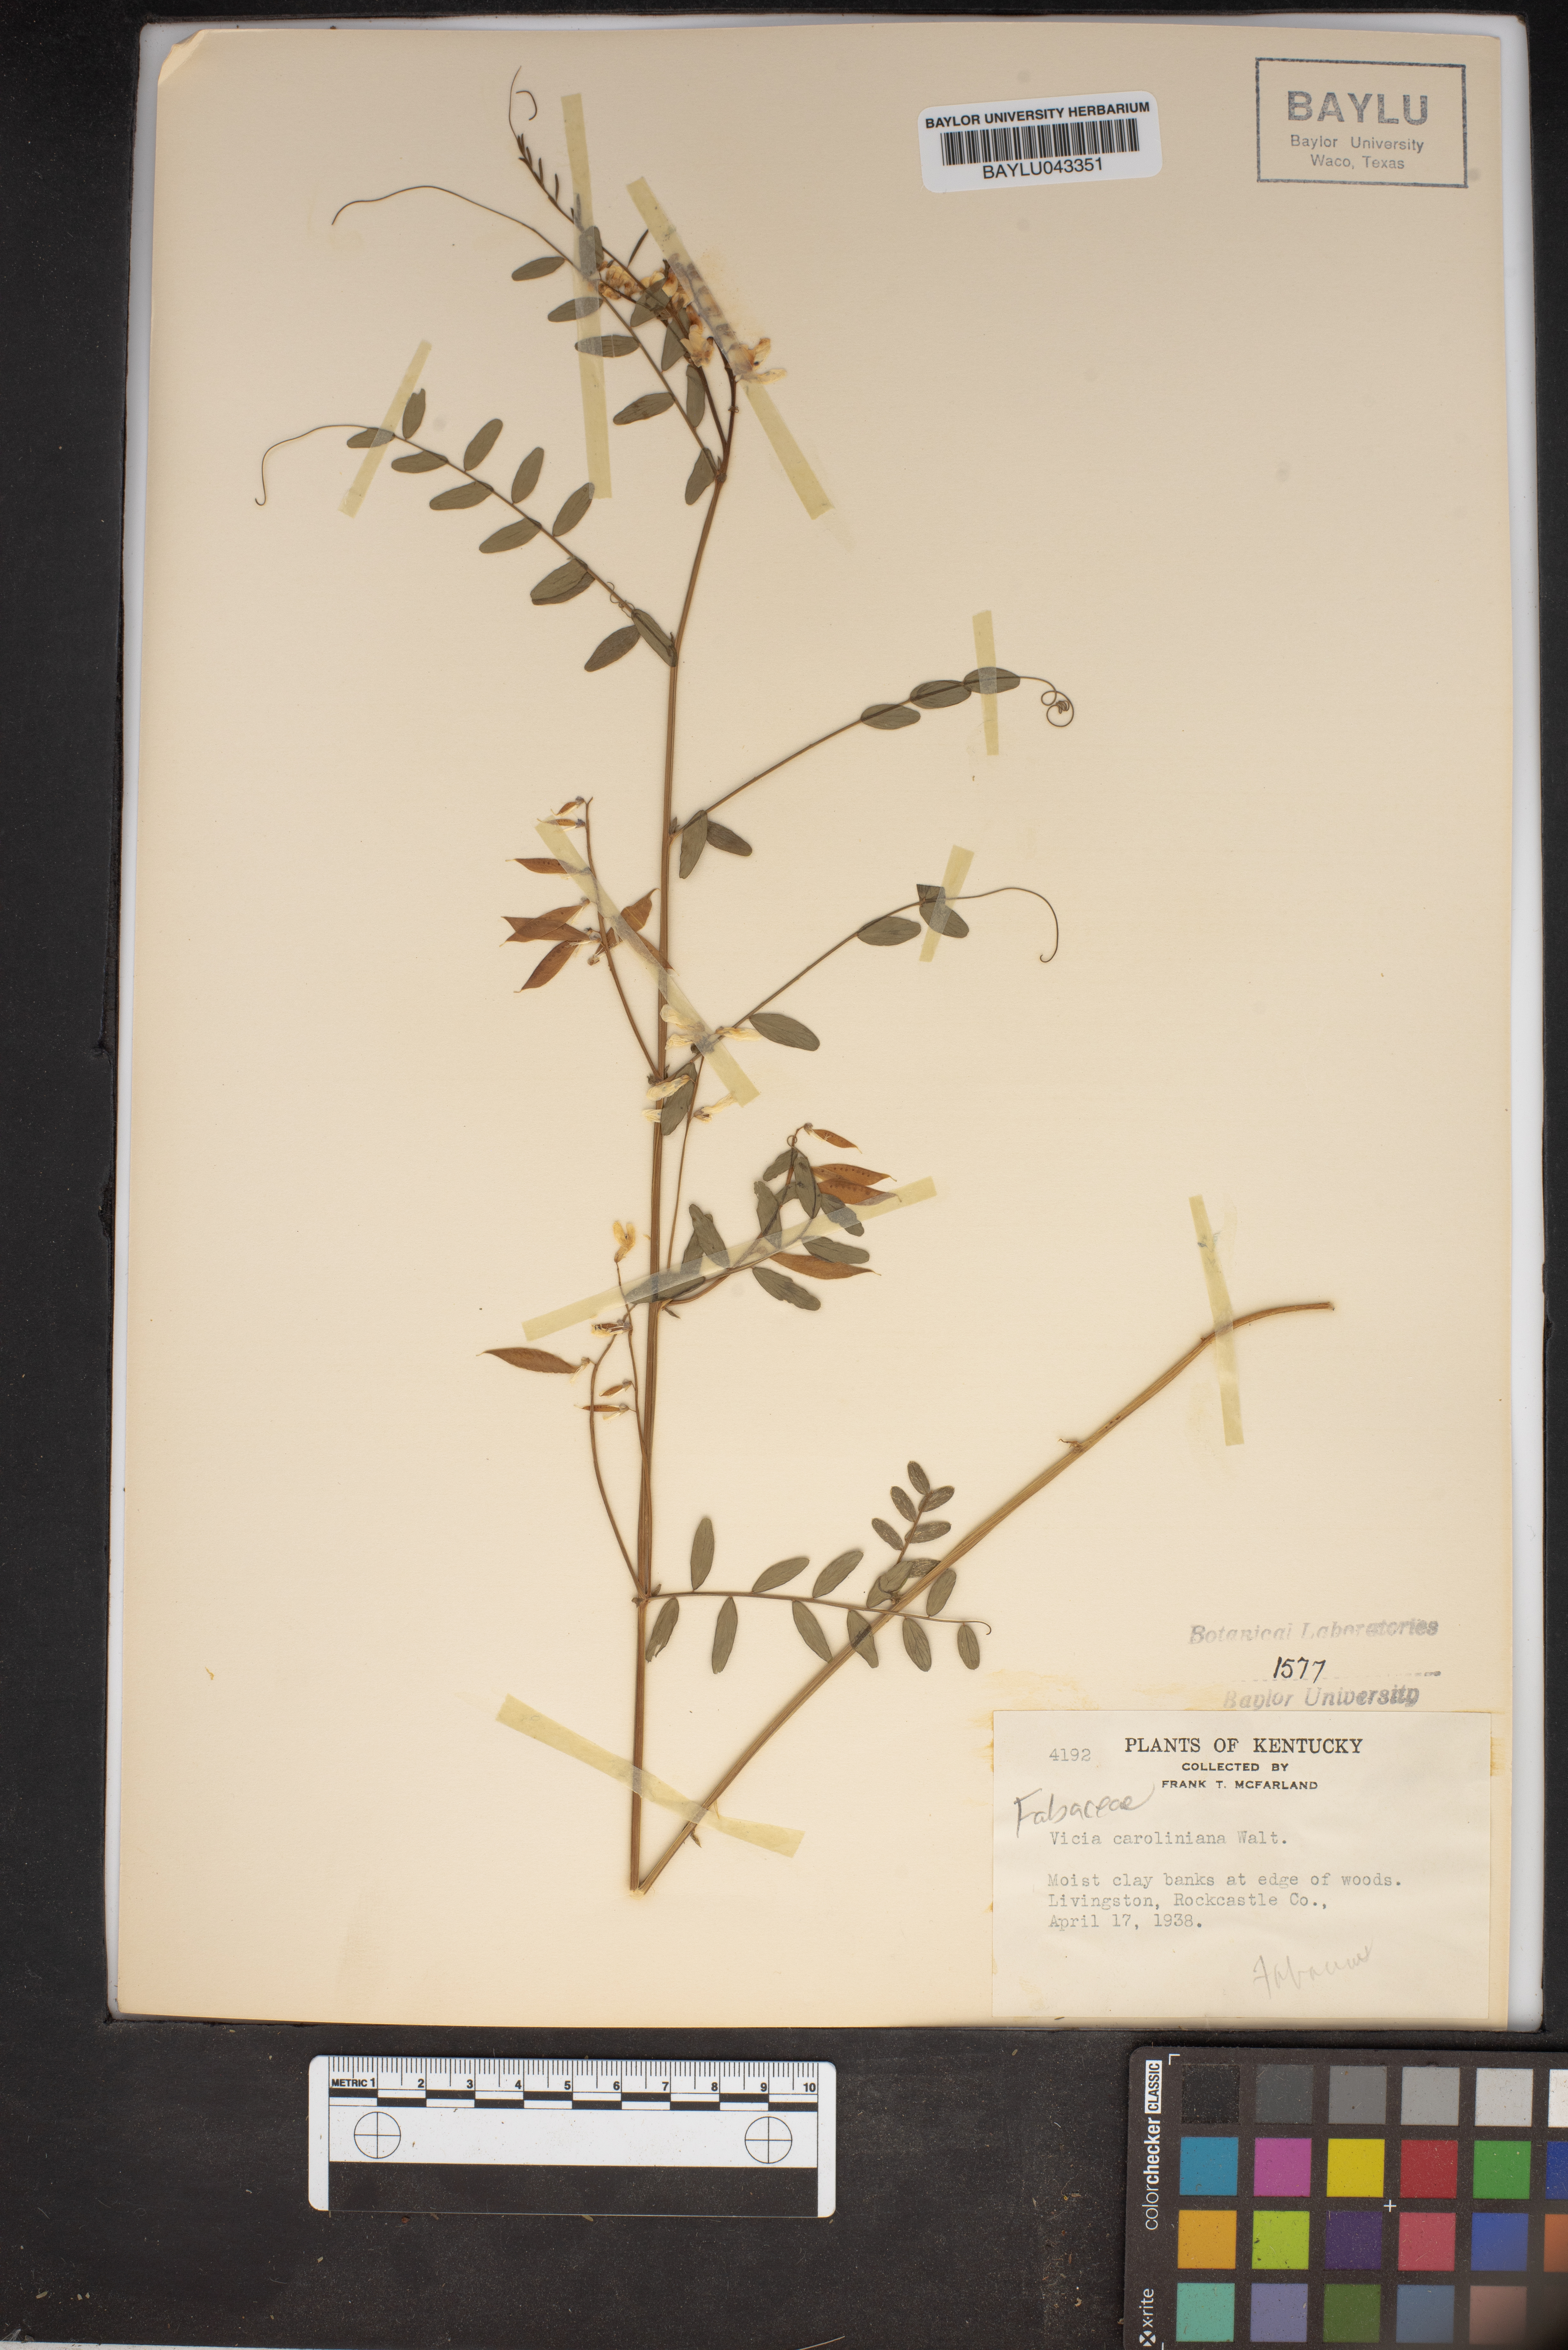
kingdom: Plantae
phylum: Tracheophyta
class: Magnoliopsida
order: Fabales
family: Fabaceae
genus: Vicia
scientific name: Vicia caroliniana
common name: Carolina vetch
